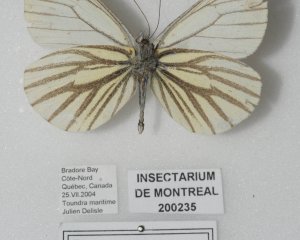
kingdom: Animalia
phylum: Arthropoda
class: Insecta
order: Lepidoptera
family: Pieridae
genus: Pieris
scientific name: Pieris oleracea
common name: Mustard White
